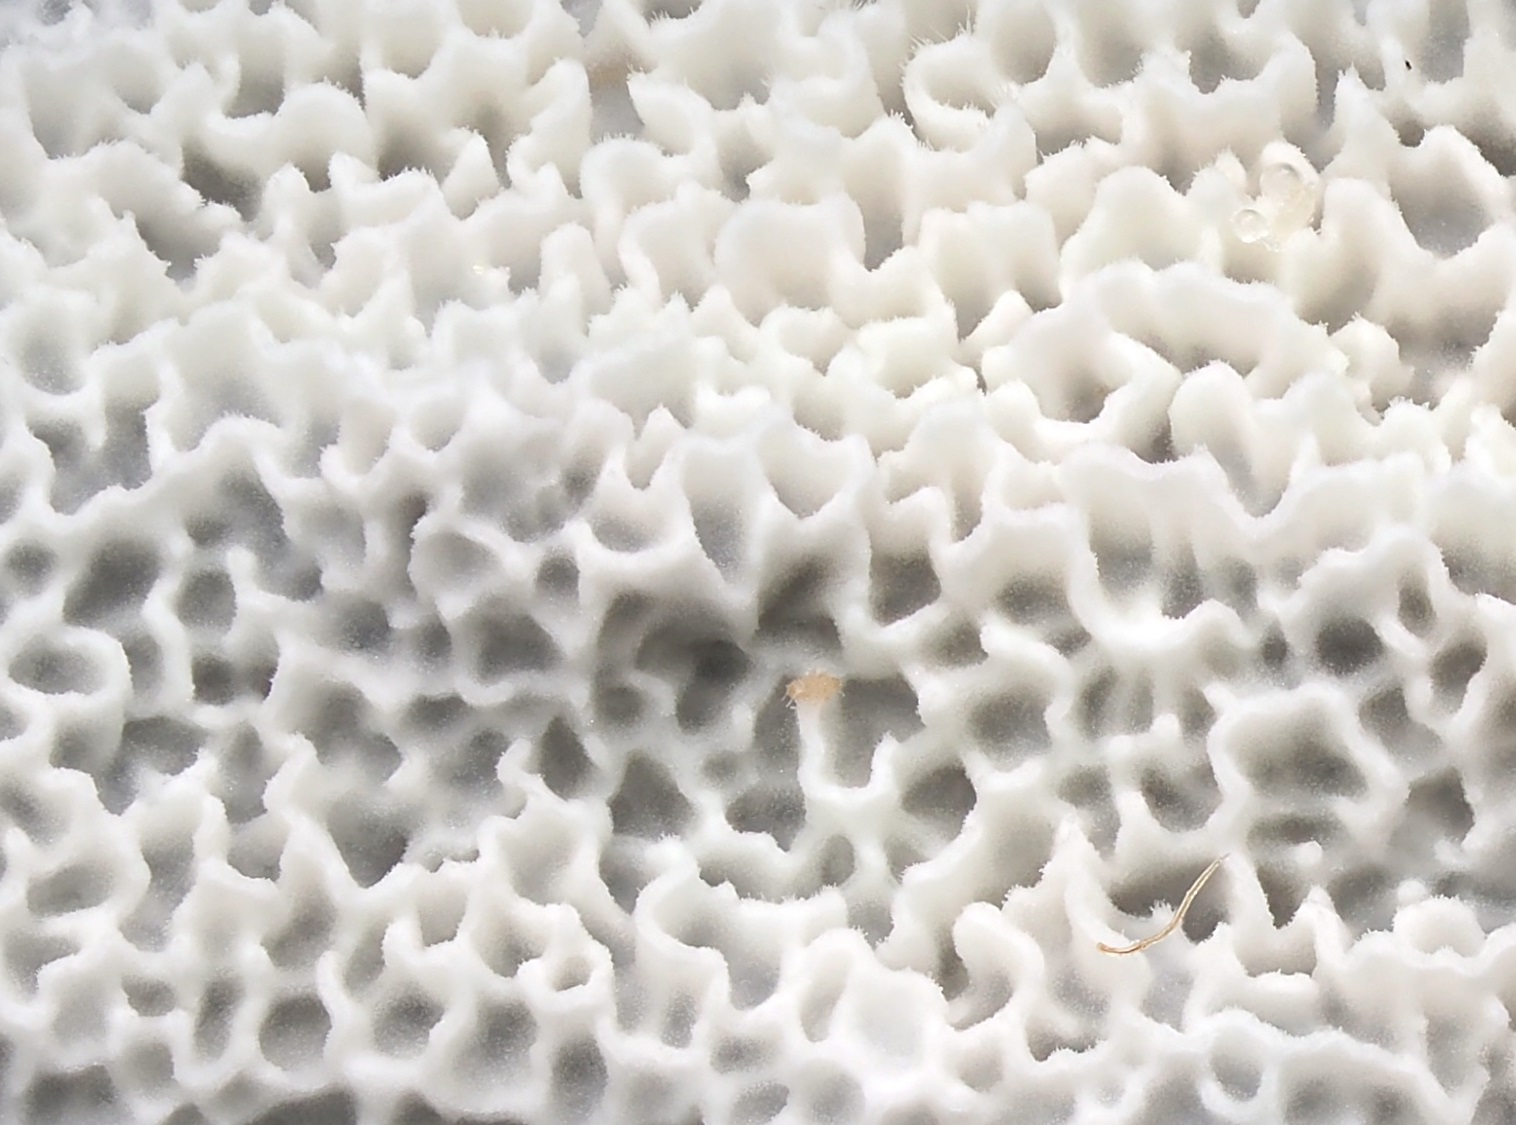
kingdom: Fungi
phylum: Basidiomycota
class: Agaricomycetes
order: Polyporales
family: Irpicaceae
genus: Ceriporia
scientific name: Ceriporia reticulata
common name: netagtig voksporesvamp
